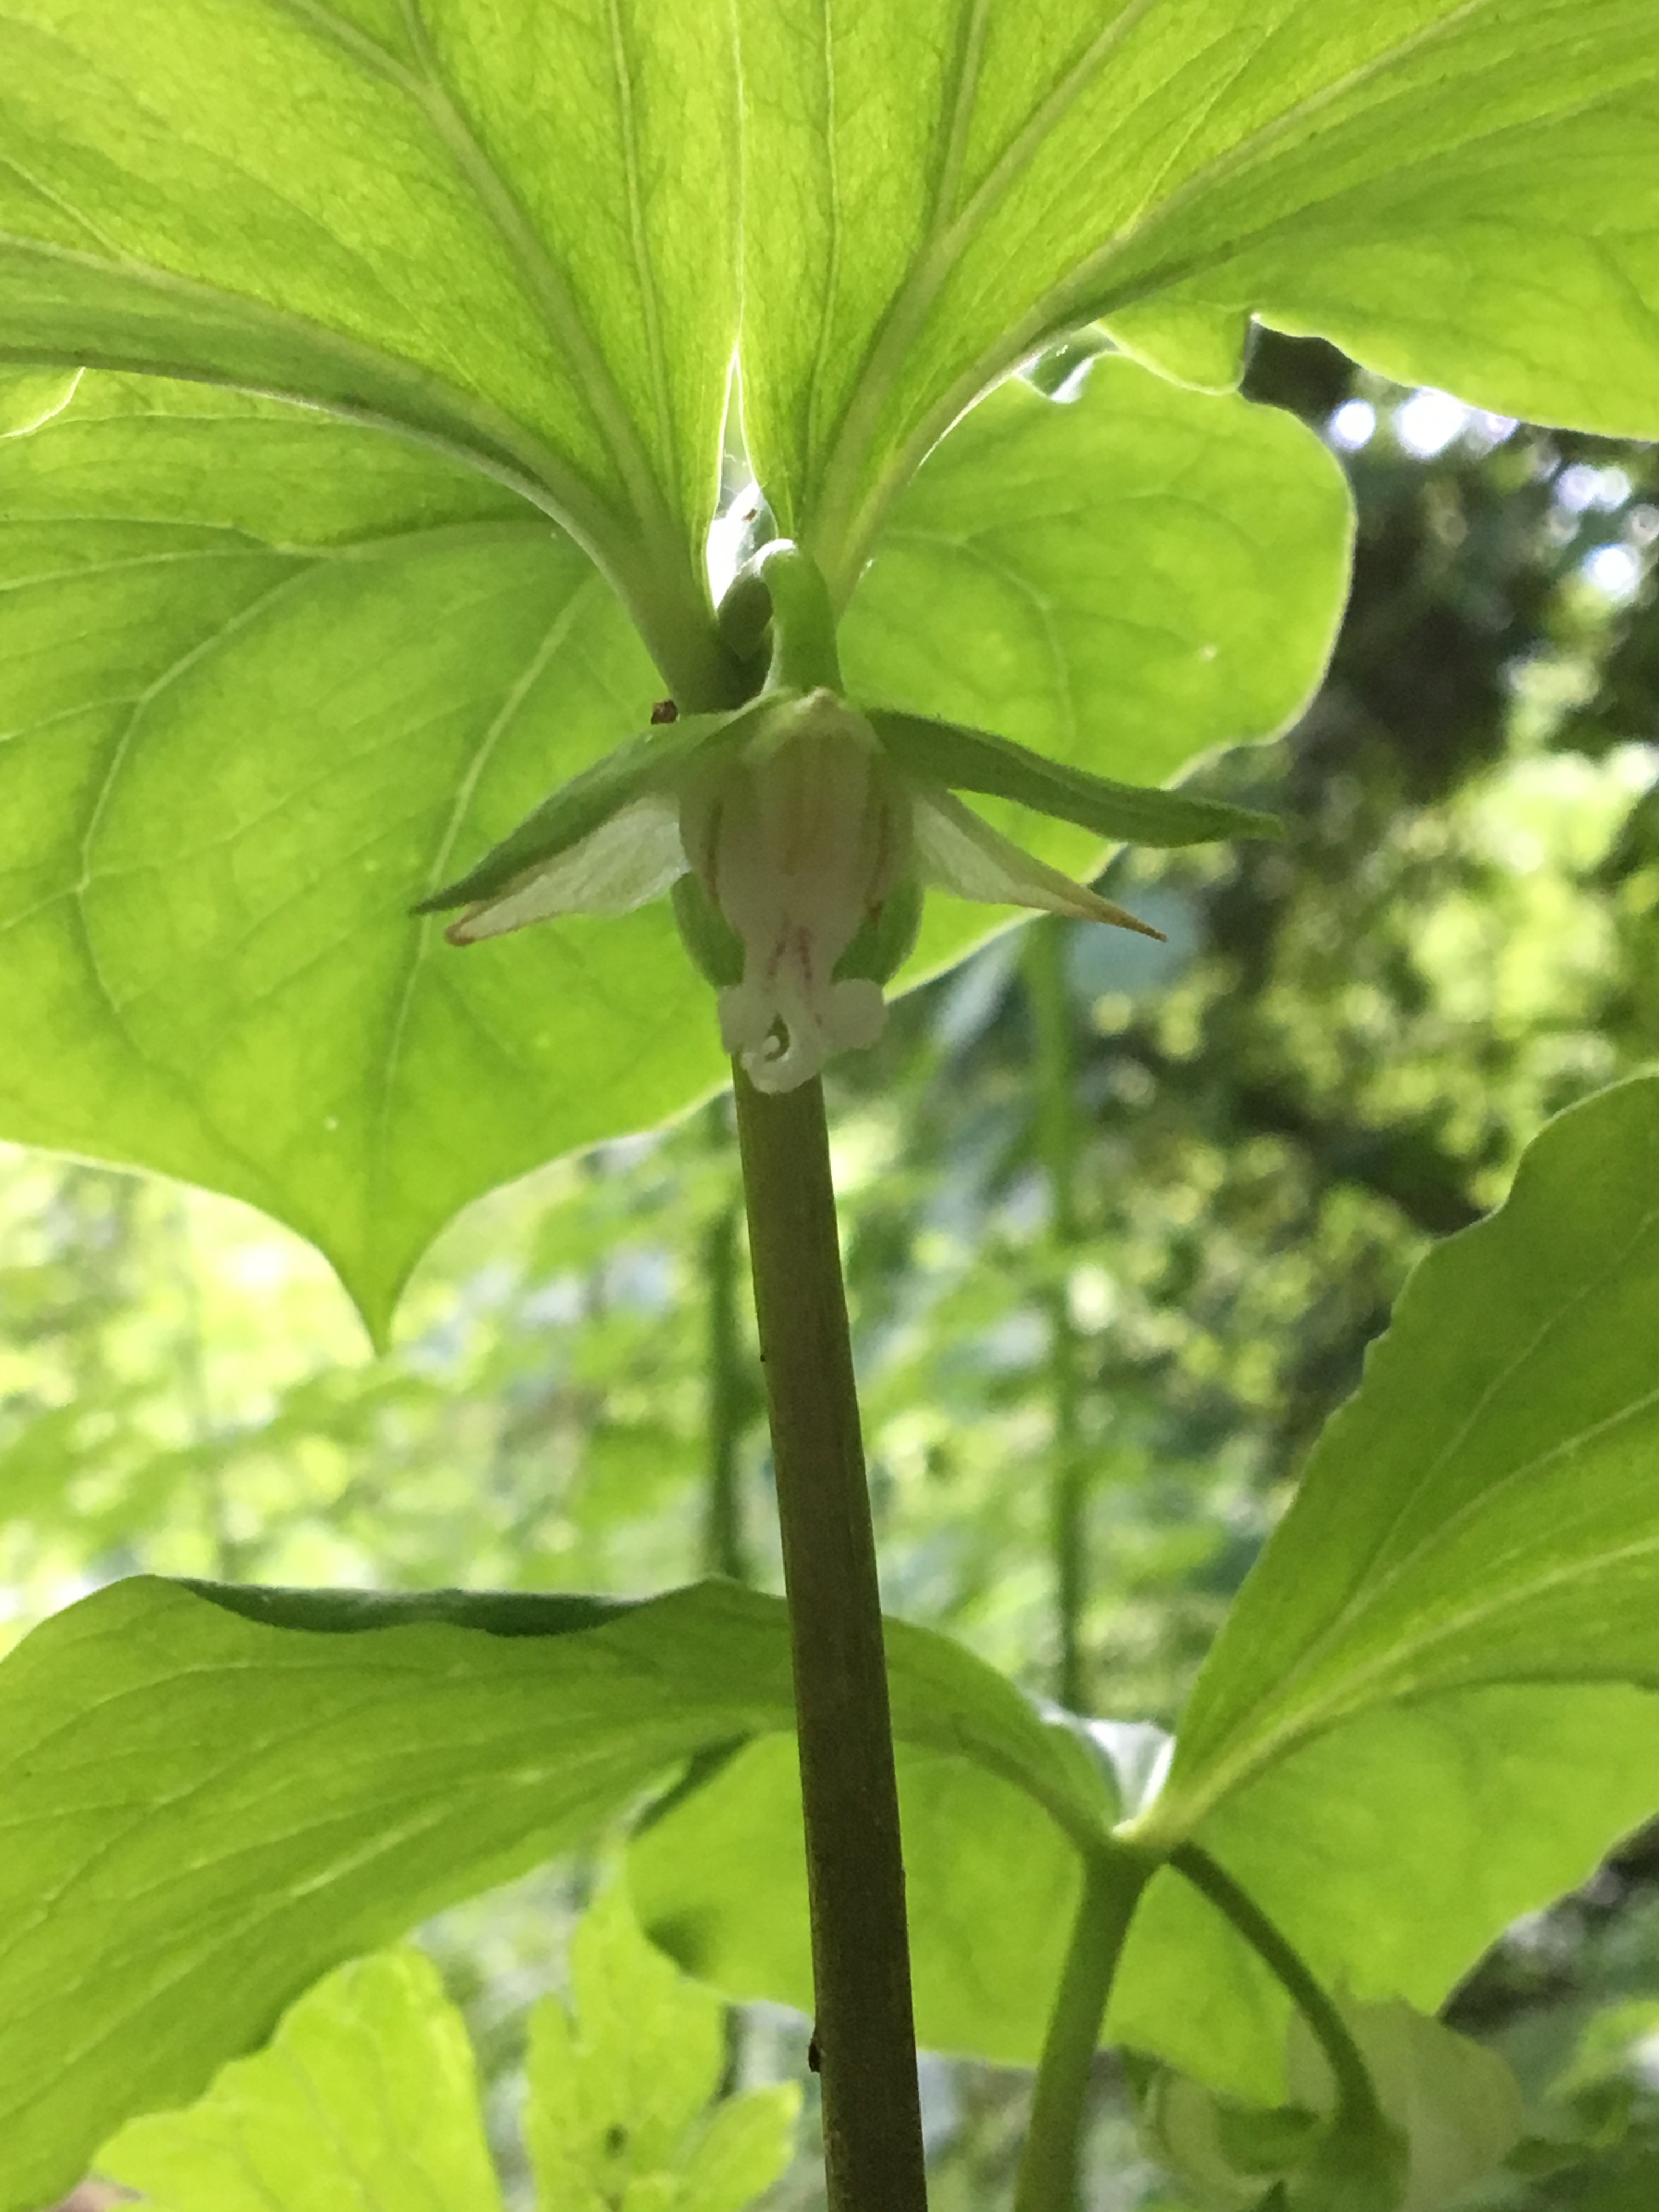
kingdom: Plantae
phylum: Tracheophyta
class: Liliopsida
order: Liliales
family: Melanthiaceae
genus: Trillium
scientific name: Trillium cernuum
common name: Nodding trillium
